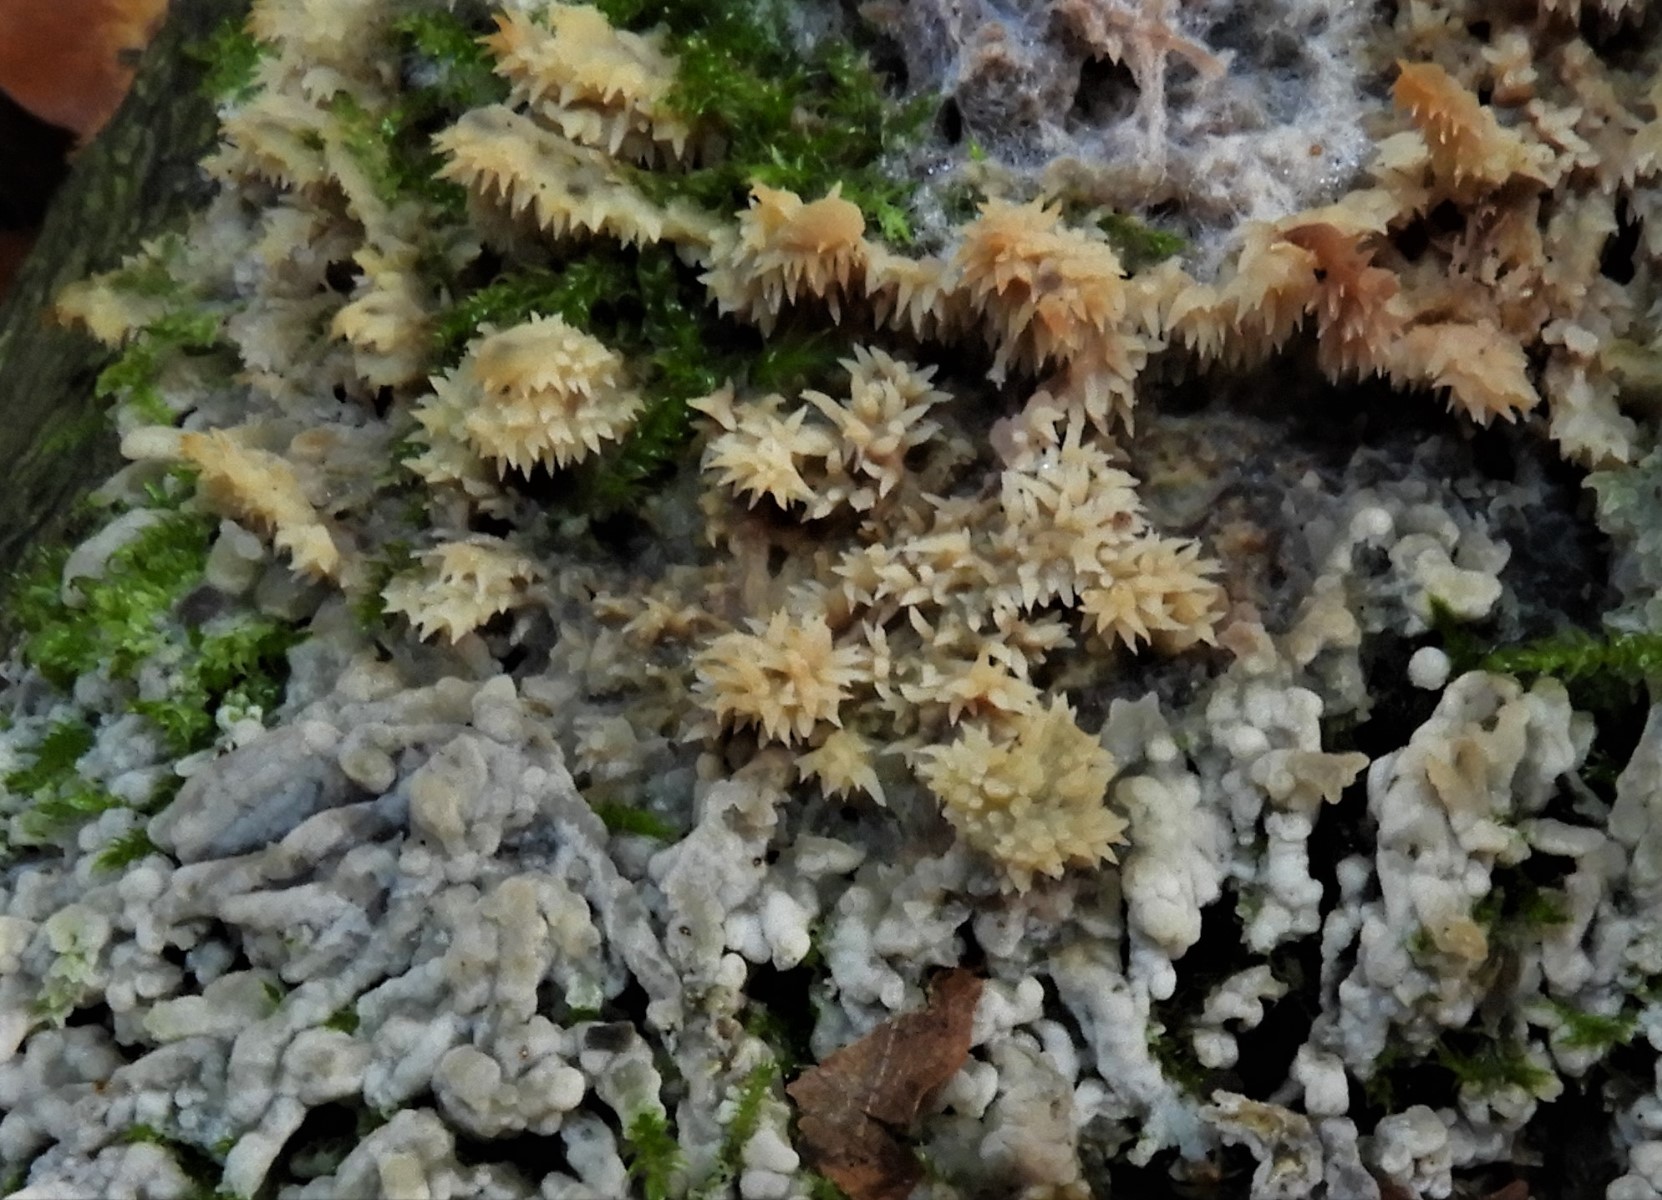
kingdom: Fungi
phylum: Basidiomycota
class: Agaricomycetes
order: Polyporales
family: Meruliaceae
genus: Mycoacia
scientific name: Mycoacia
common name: vokspig
